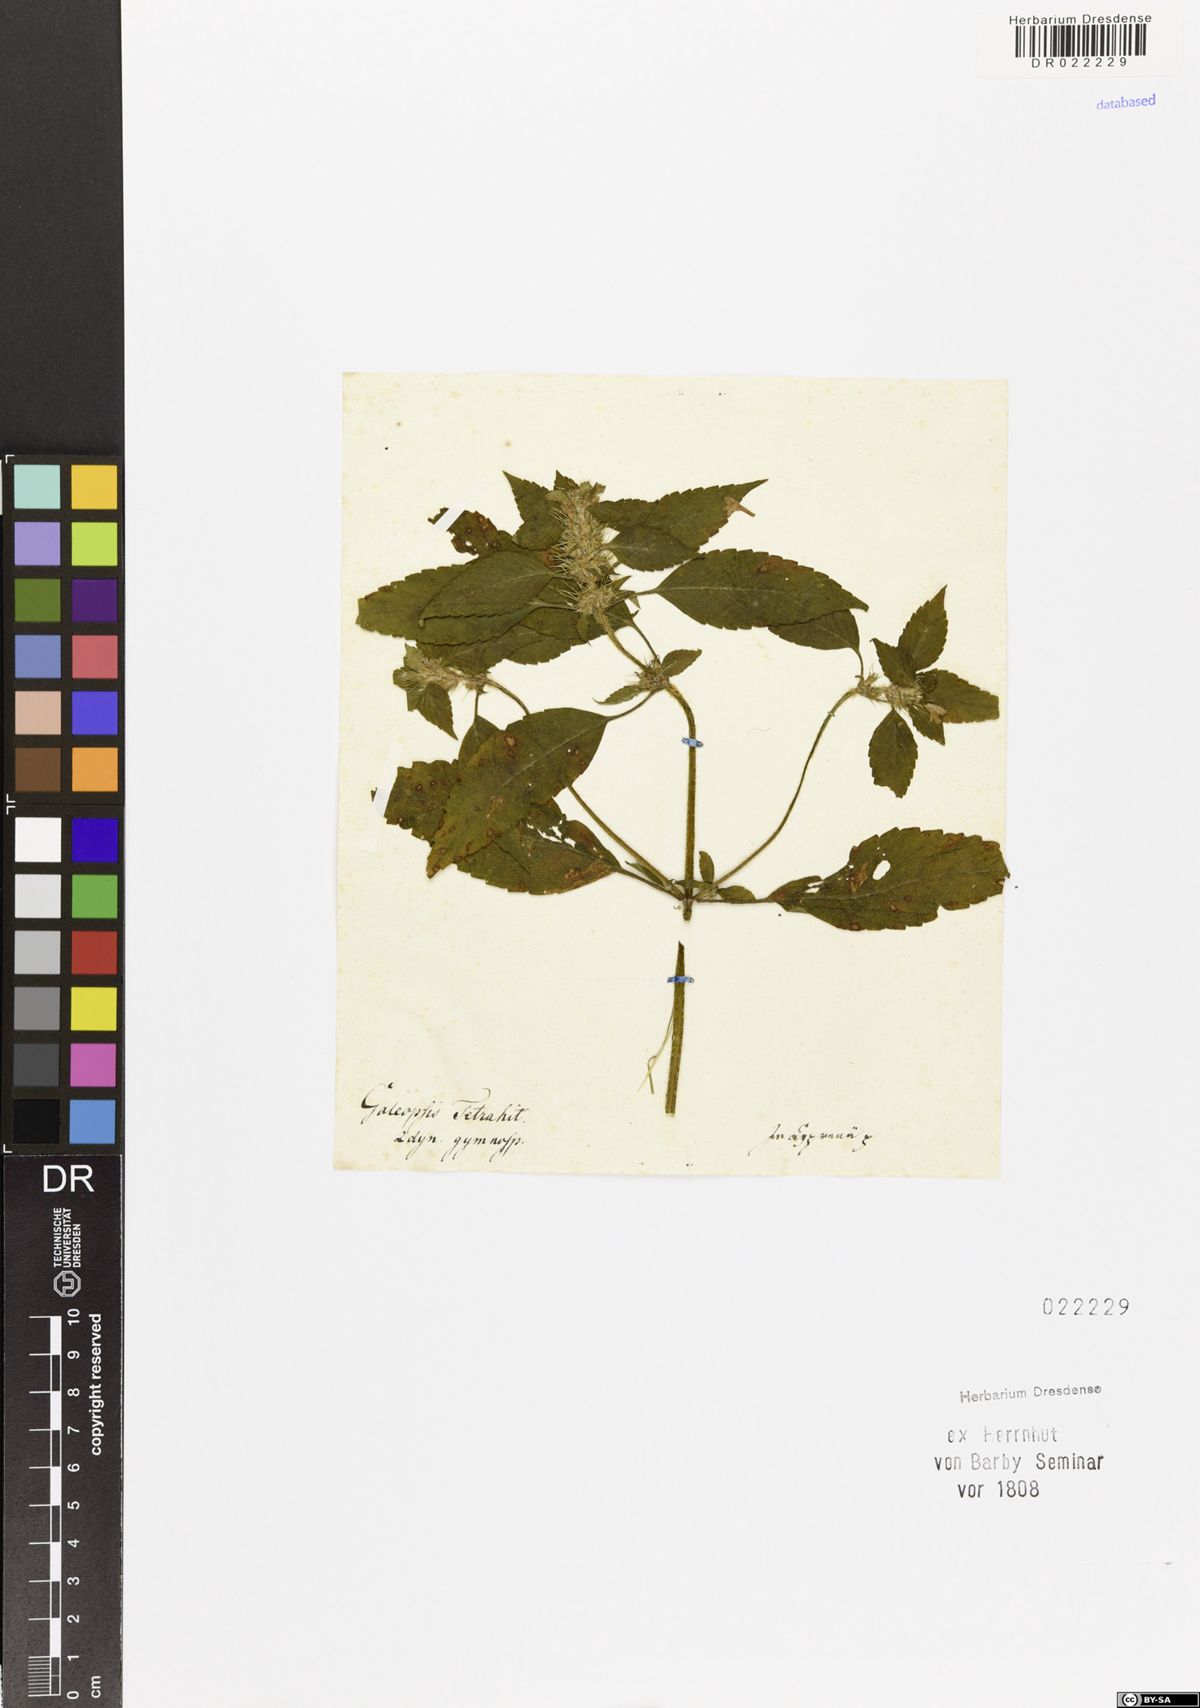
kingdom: Plantae
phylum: Tracheophyta
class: Magnoliopsida
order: Lamiales
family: Lamiaceae
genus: Galeopsis
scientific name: Galeopsis tetrahit
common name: Common hemp-nettle
